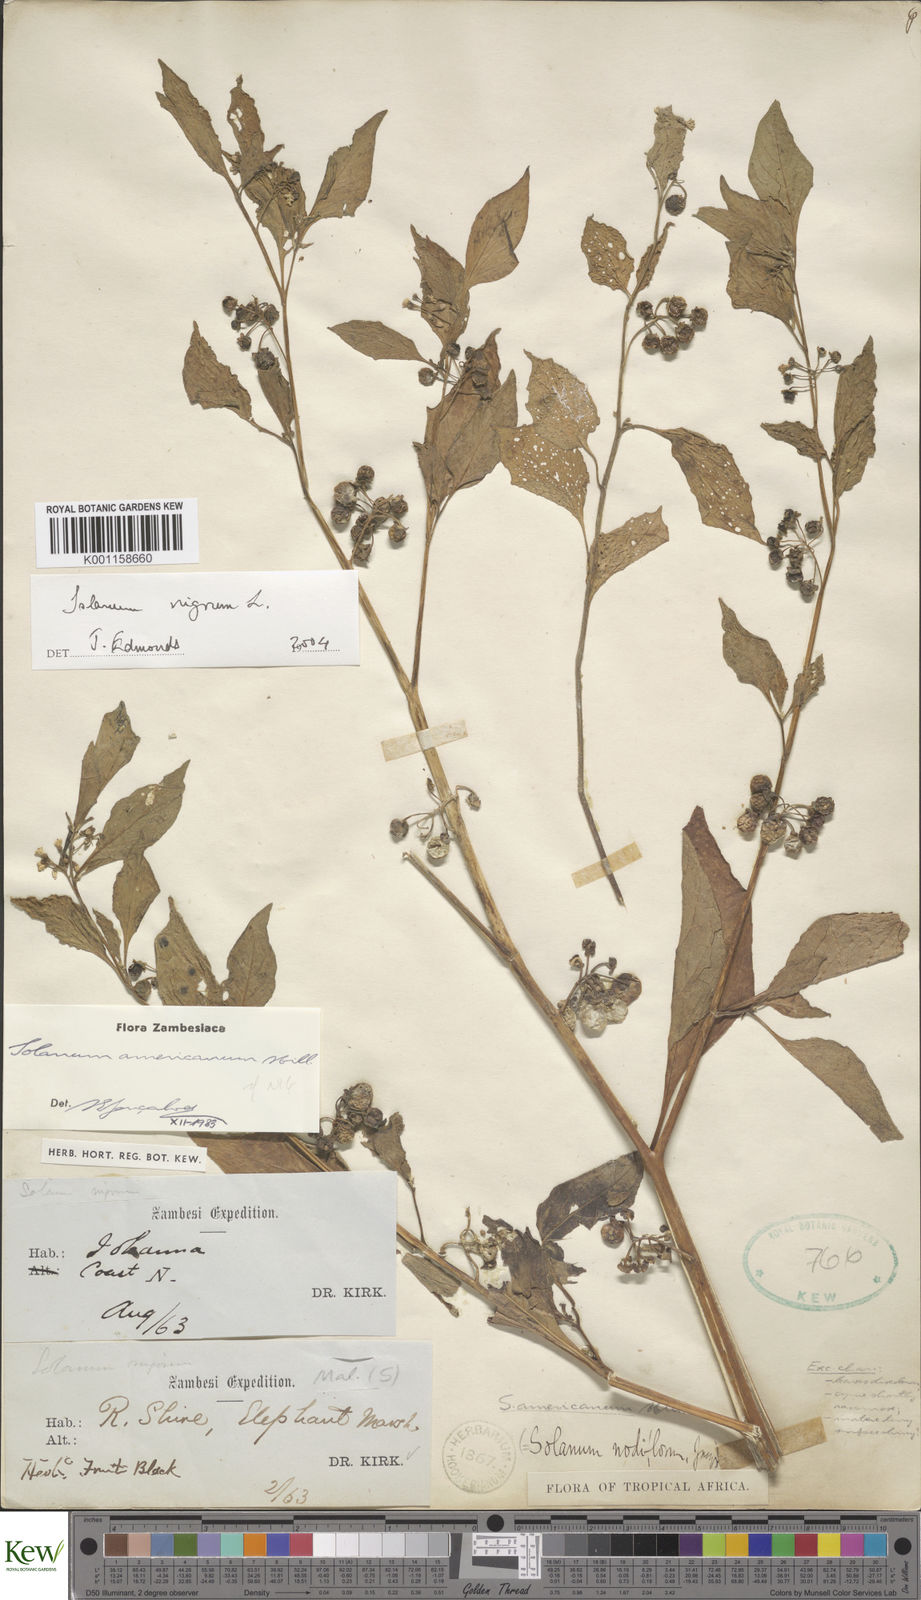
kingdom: Plantae
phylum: Tracheophyta
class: Magnoliopsida
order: Solanales
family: Solanaceae
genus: Solanum
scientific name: Solanum nigrum
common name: Black nightshade
